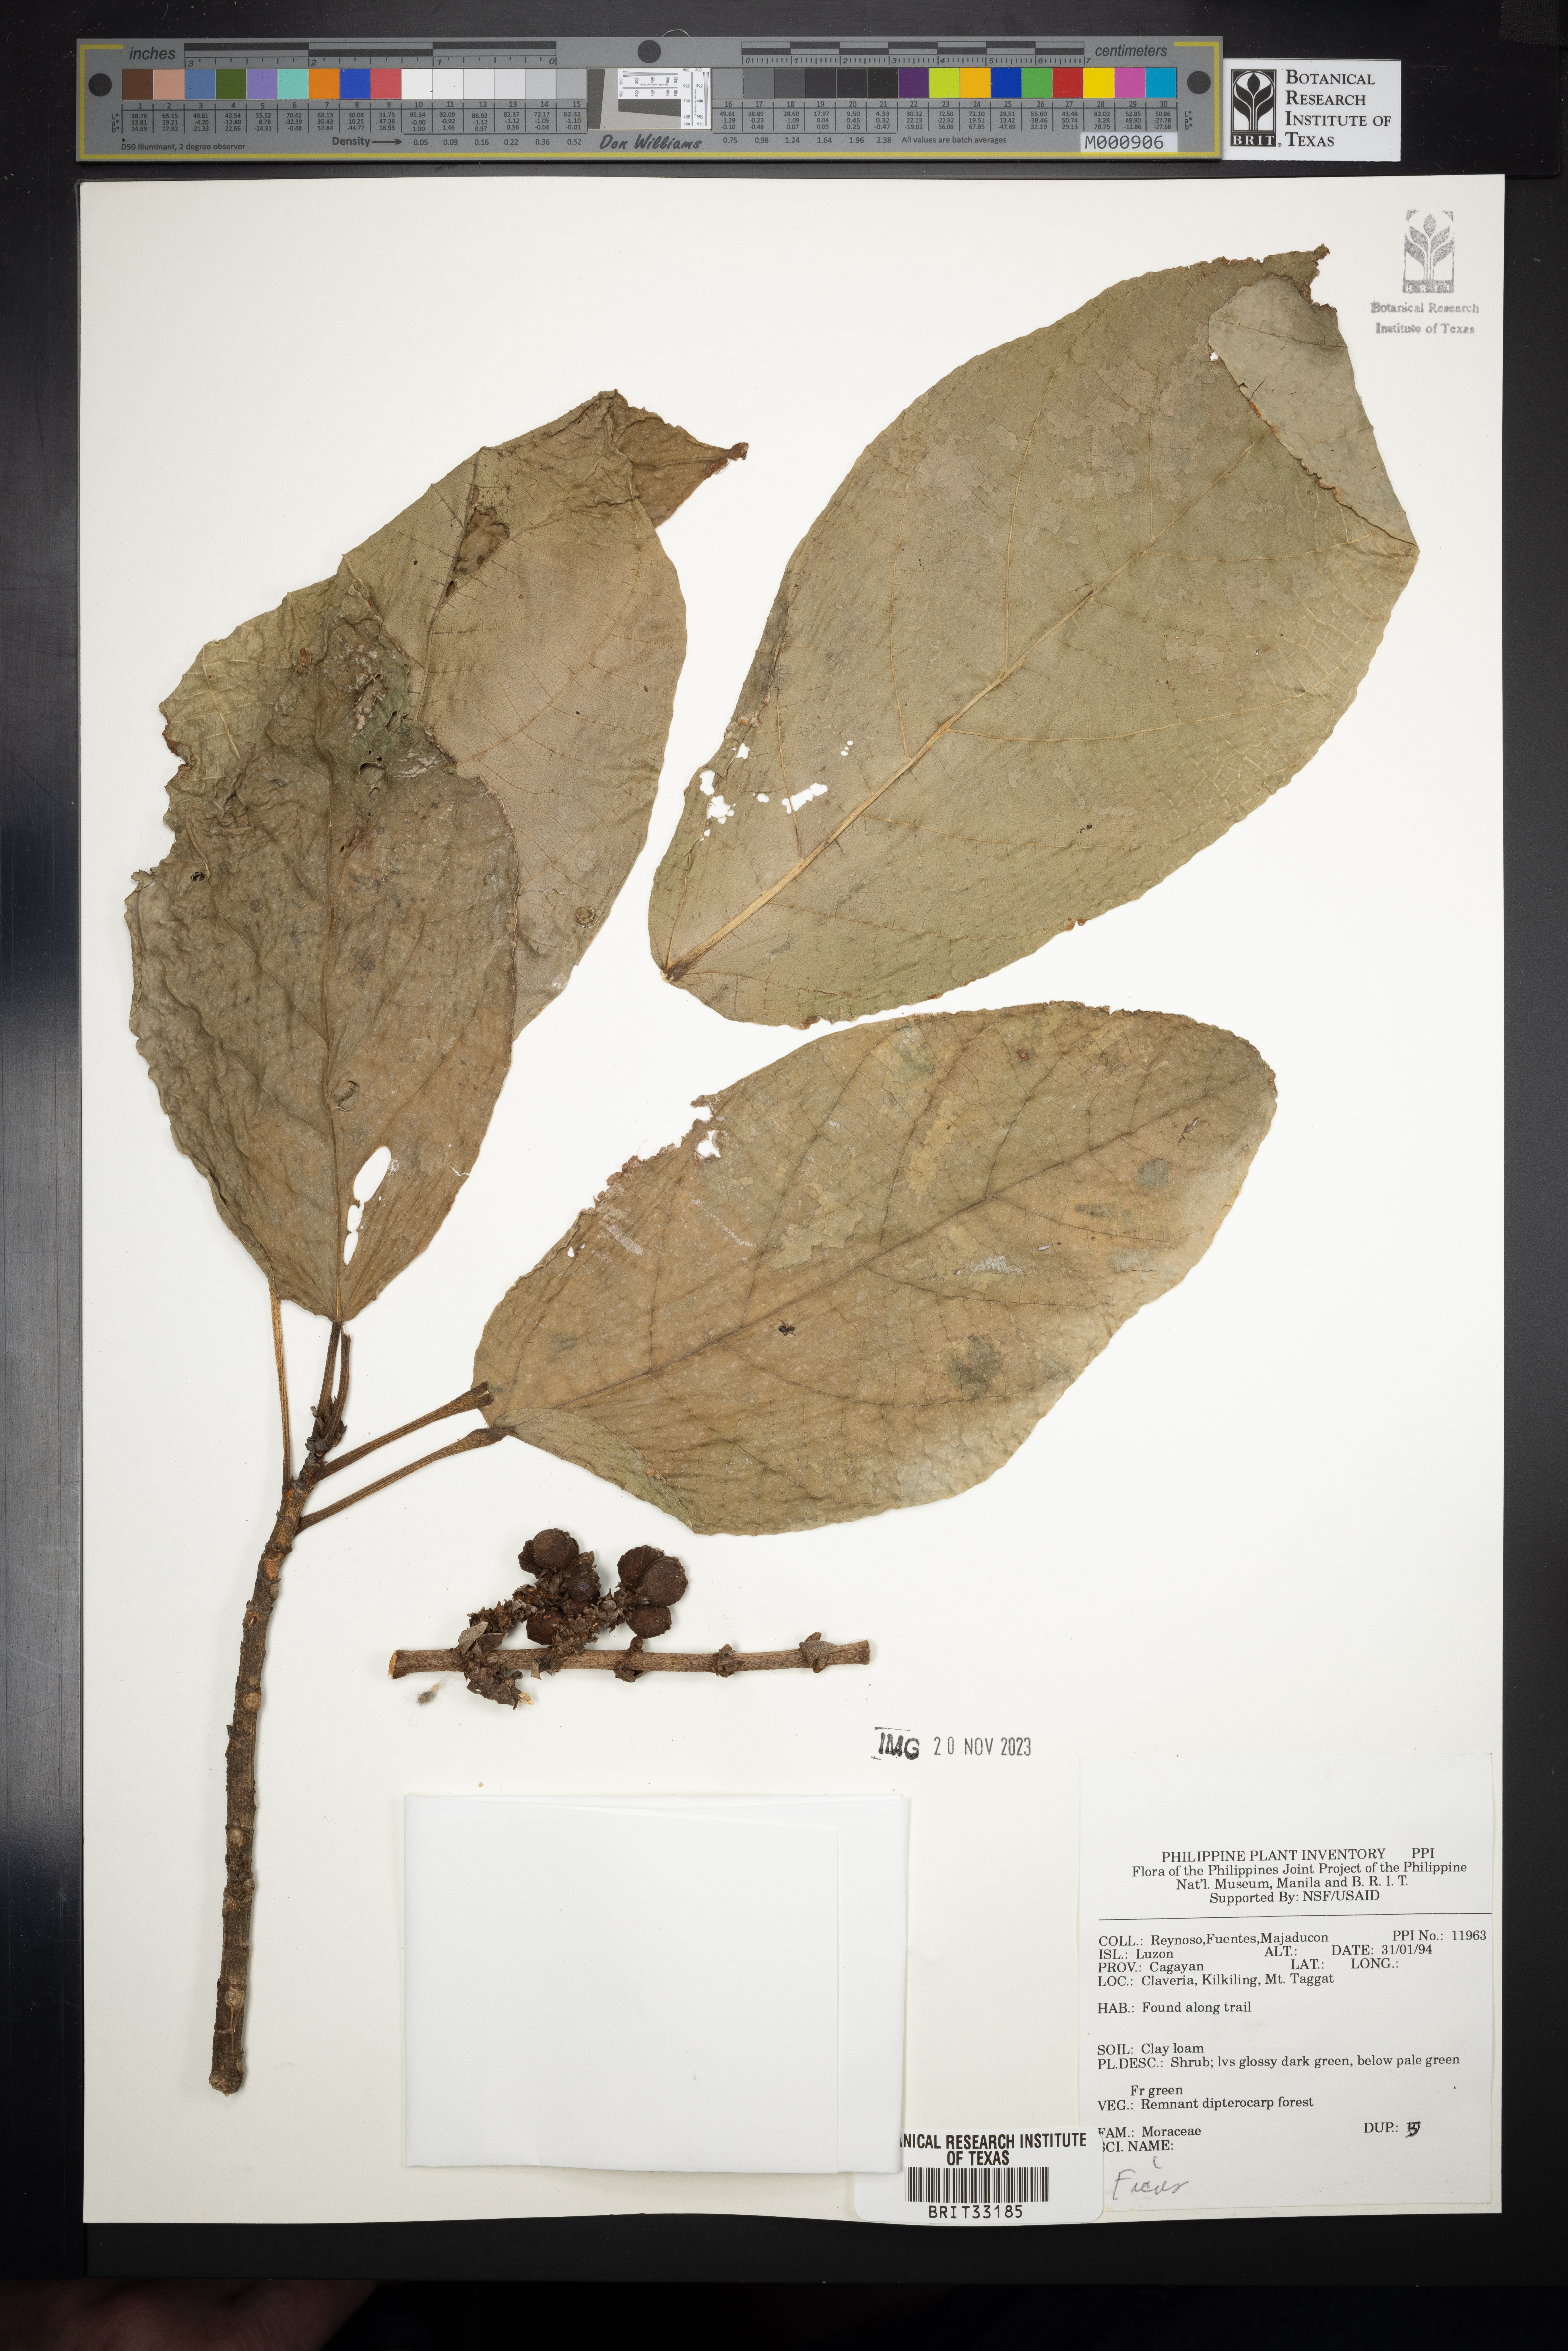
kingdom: Plantae
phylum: Tracheophyta
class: Magnoliopsida
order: Rosales
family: Moraceae
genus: Ficus
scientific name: Ficus
